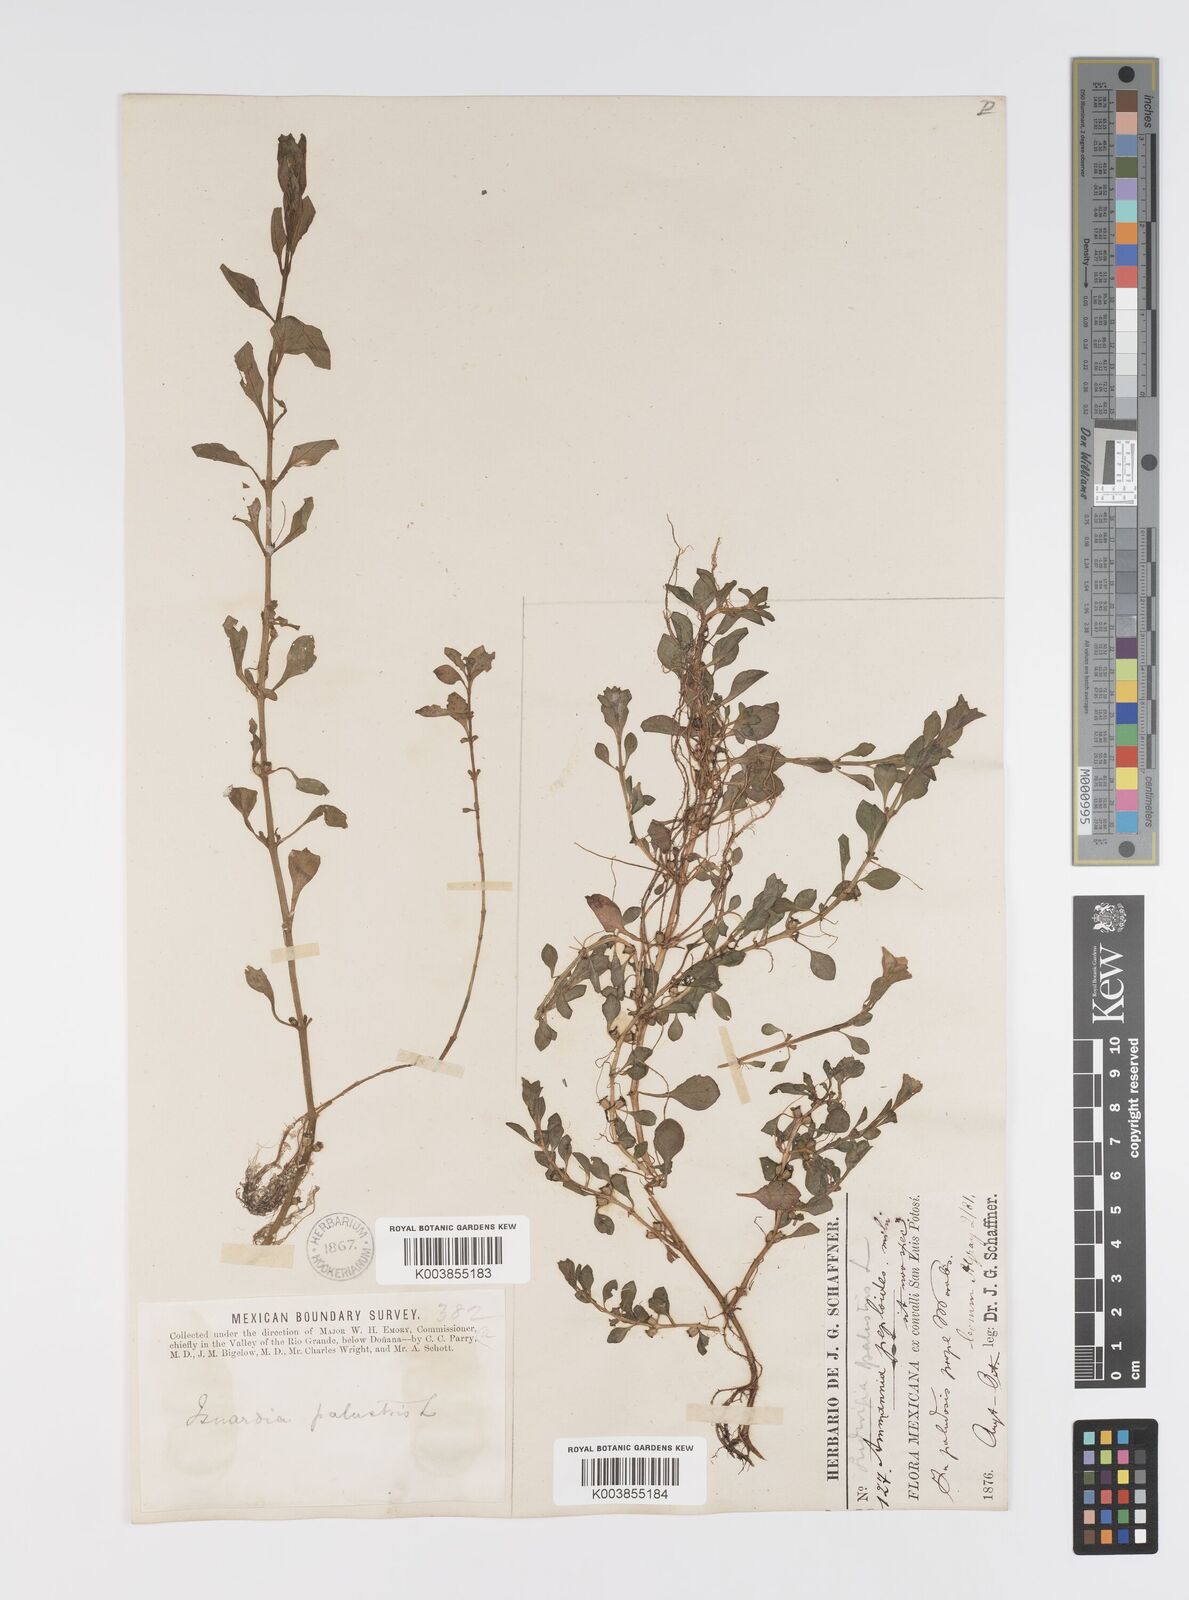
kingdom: Plantae
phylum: Tracheophyta
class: Magnoliopsida
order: Myrtales
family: Onagraceae
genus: Ludwigia
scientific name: Ludwigia palustris
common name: Hampshire-purslane
